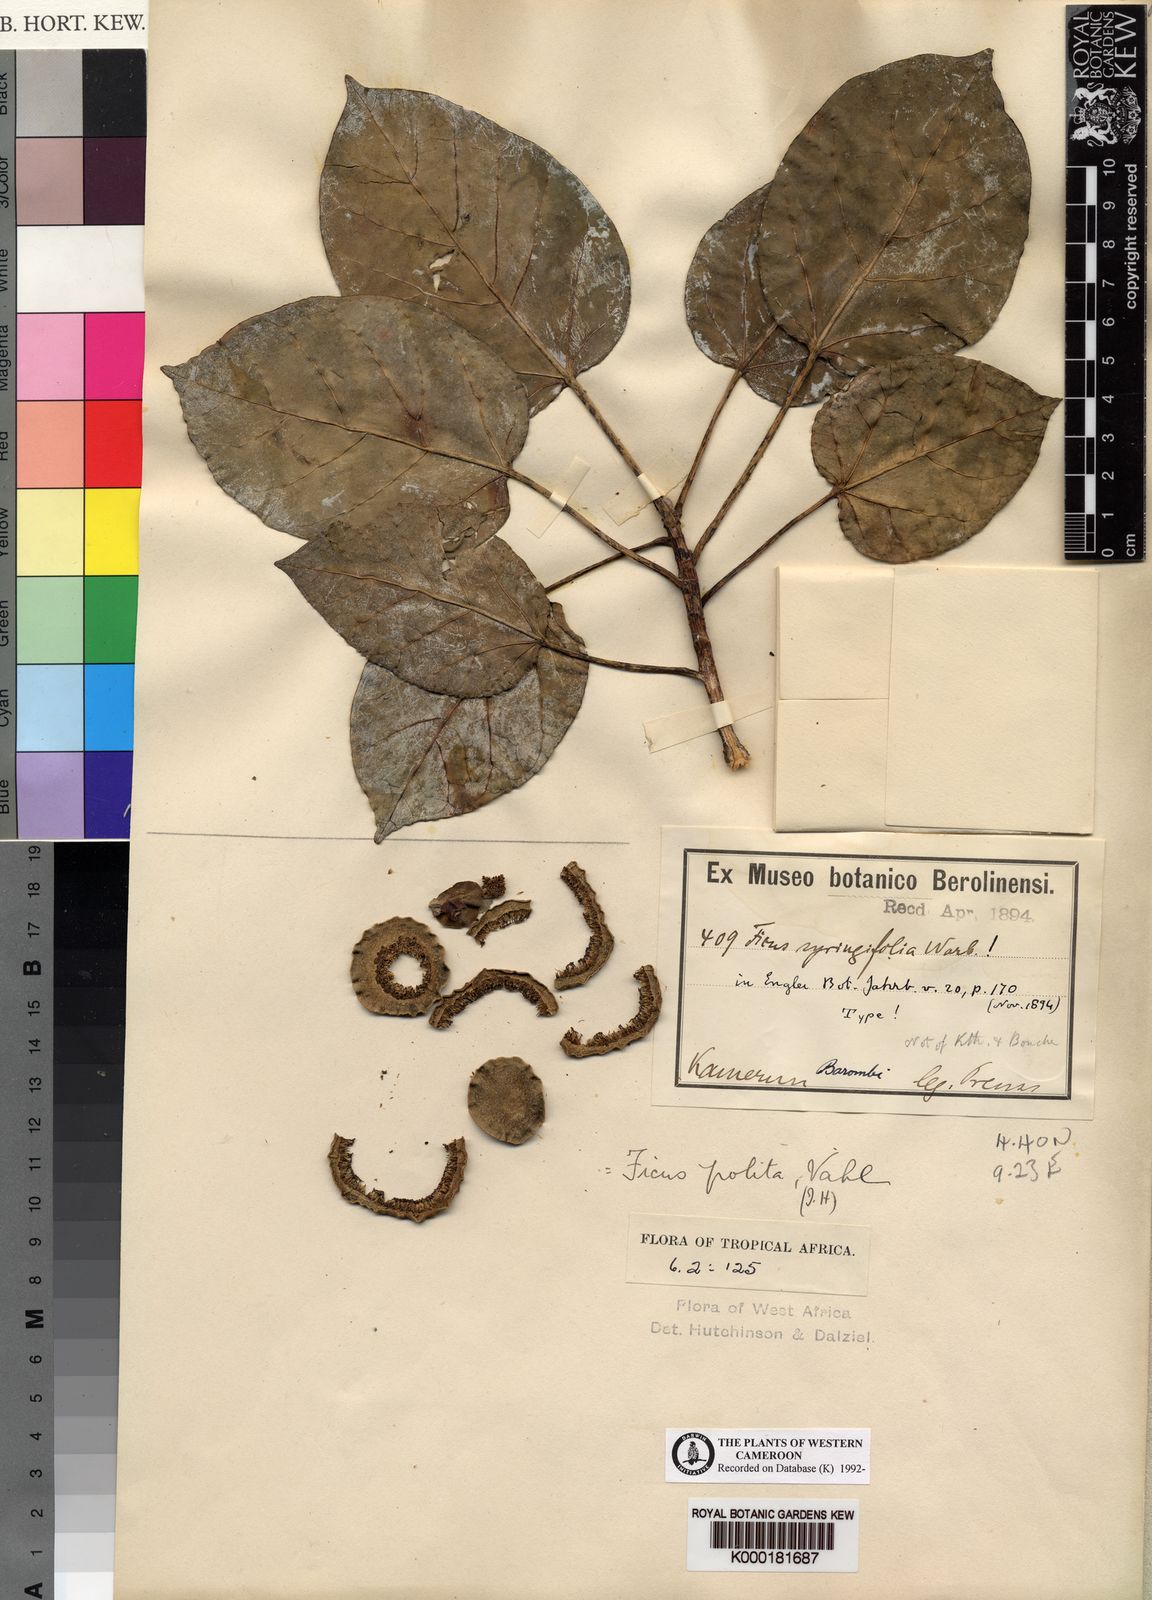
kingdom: Plantae
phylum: Tracheophyta
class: Magnoliopsida
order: Rosales
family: Moraceae
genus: Ficus
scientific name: Ficus polita
